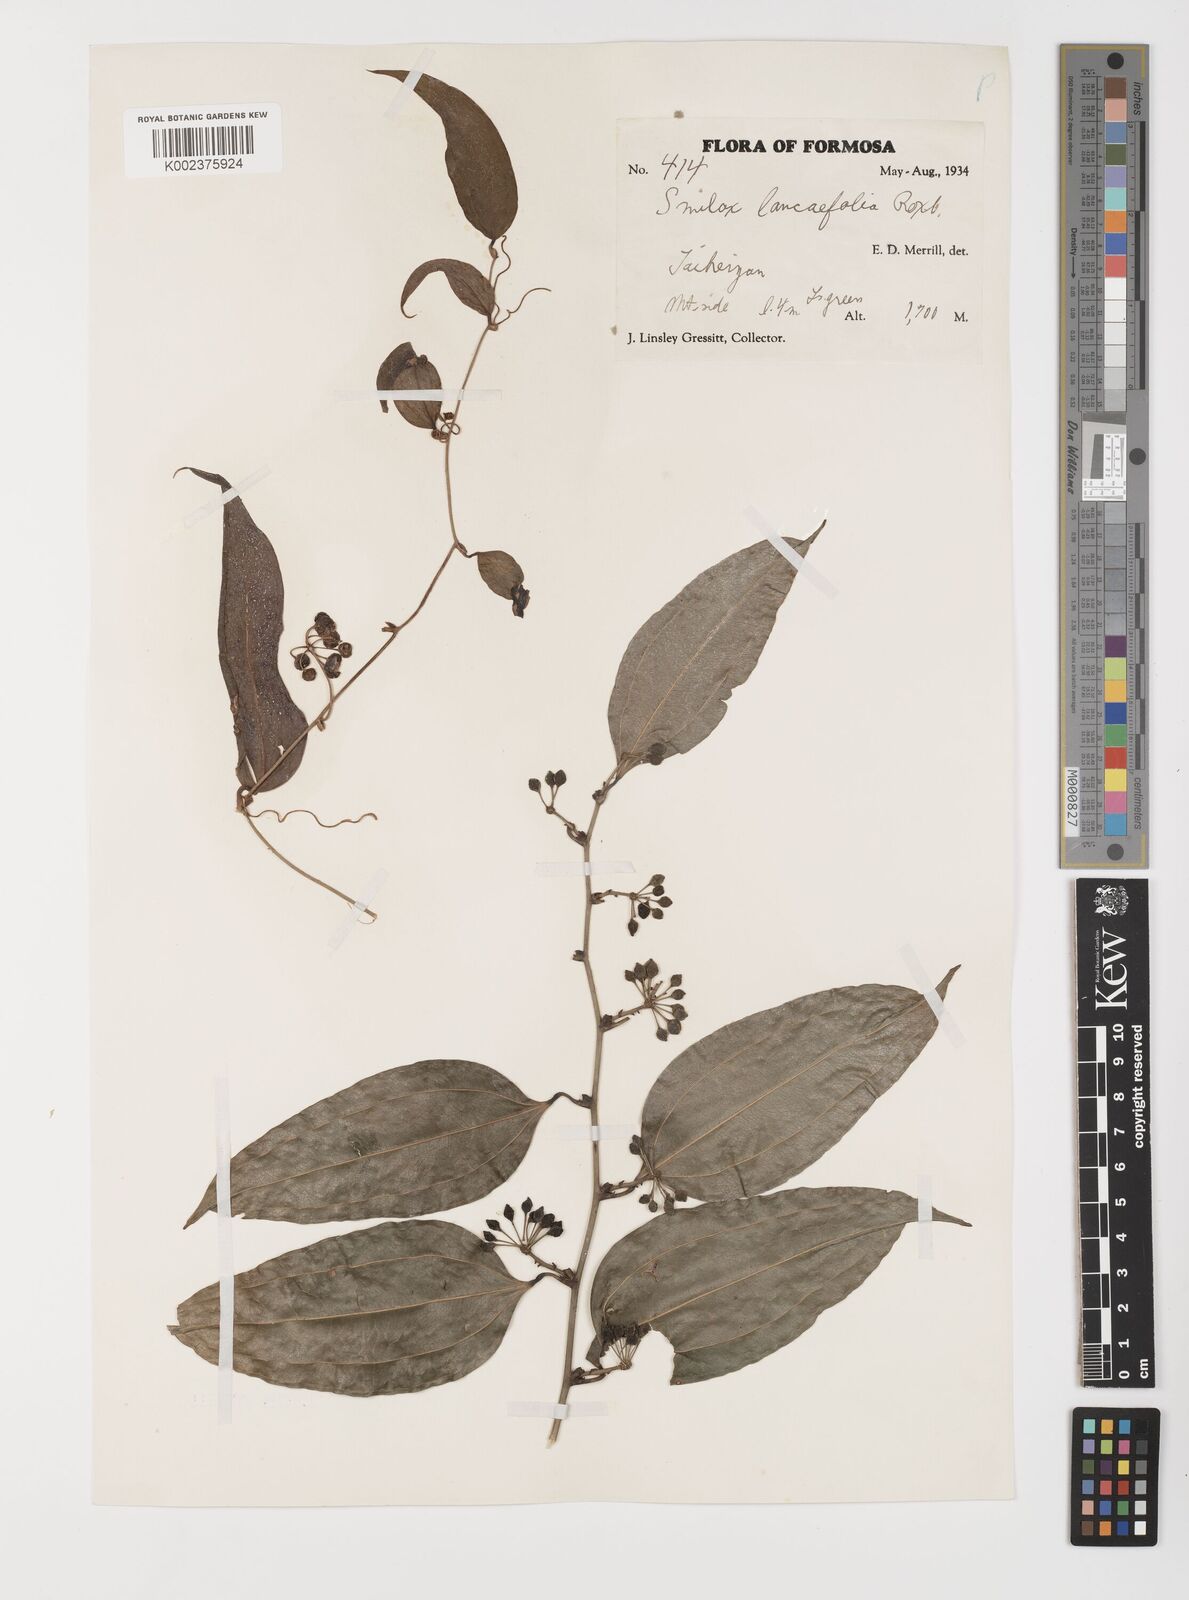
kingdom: Plantae
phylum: Tracheophyta
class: Liliopsida
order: Liliales
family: Smilacaceae
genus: Smilax
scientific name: Smilax lanceifolia
